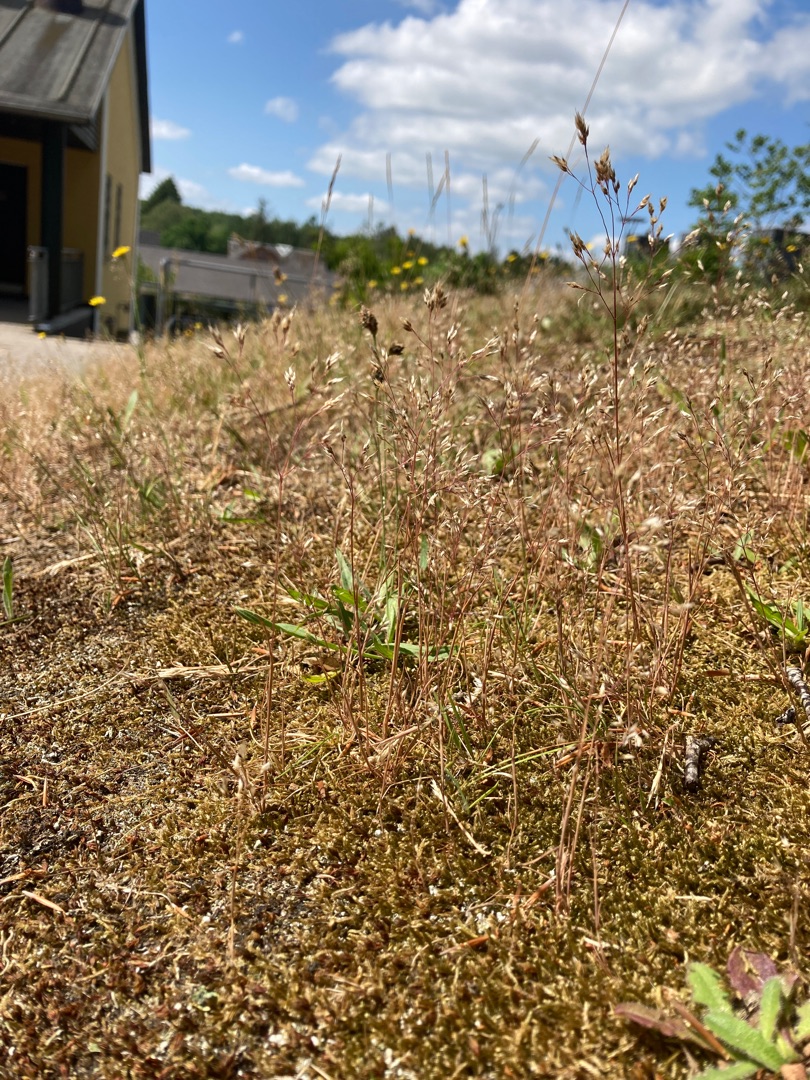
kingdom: Plantae
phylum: Tracheophyta
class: Liliopsida
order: Poales
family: Poaceae
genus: Aira
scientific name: Aira caryophyllea
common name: Udspærret dværgbunke
